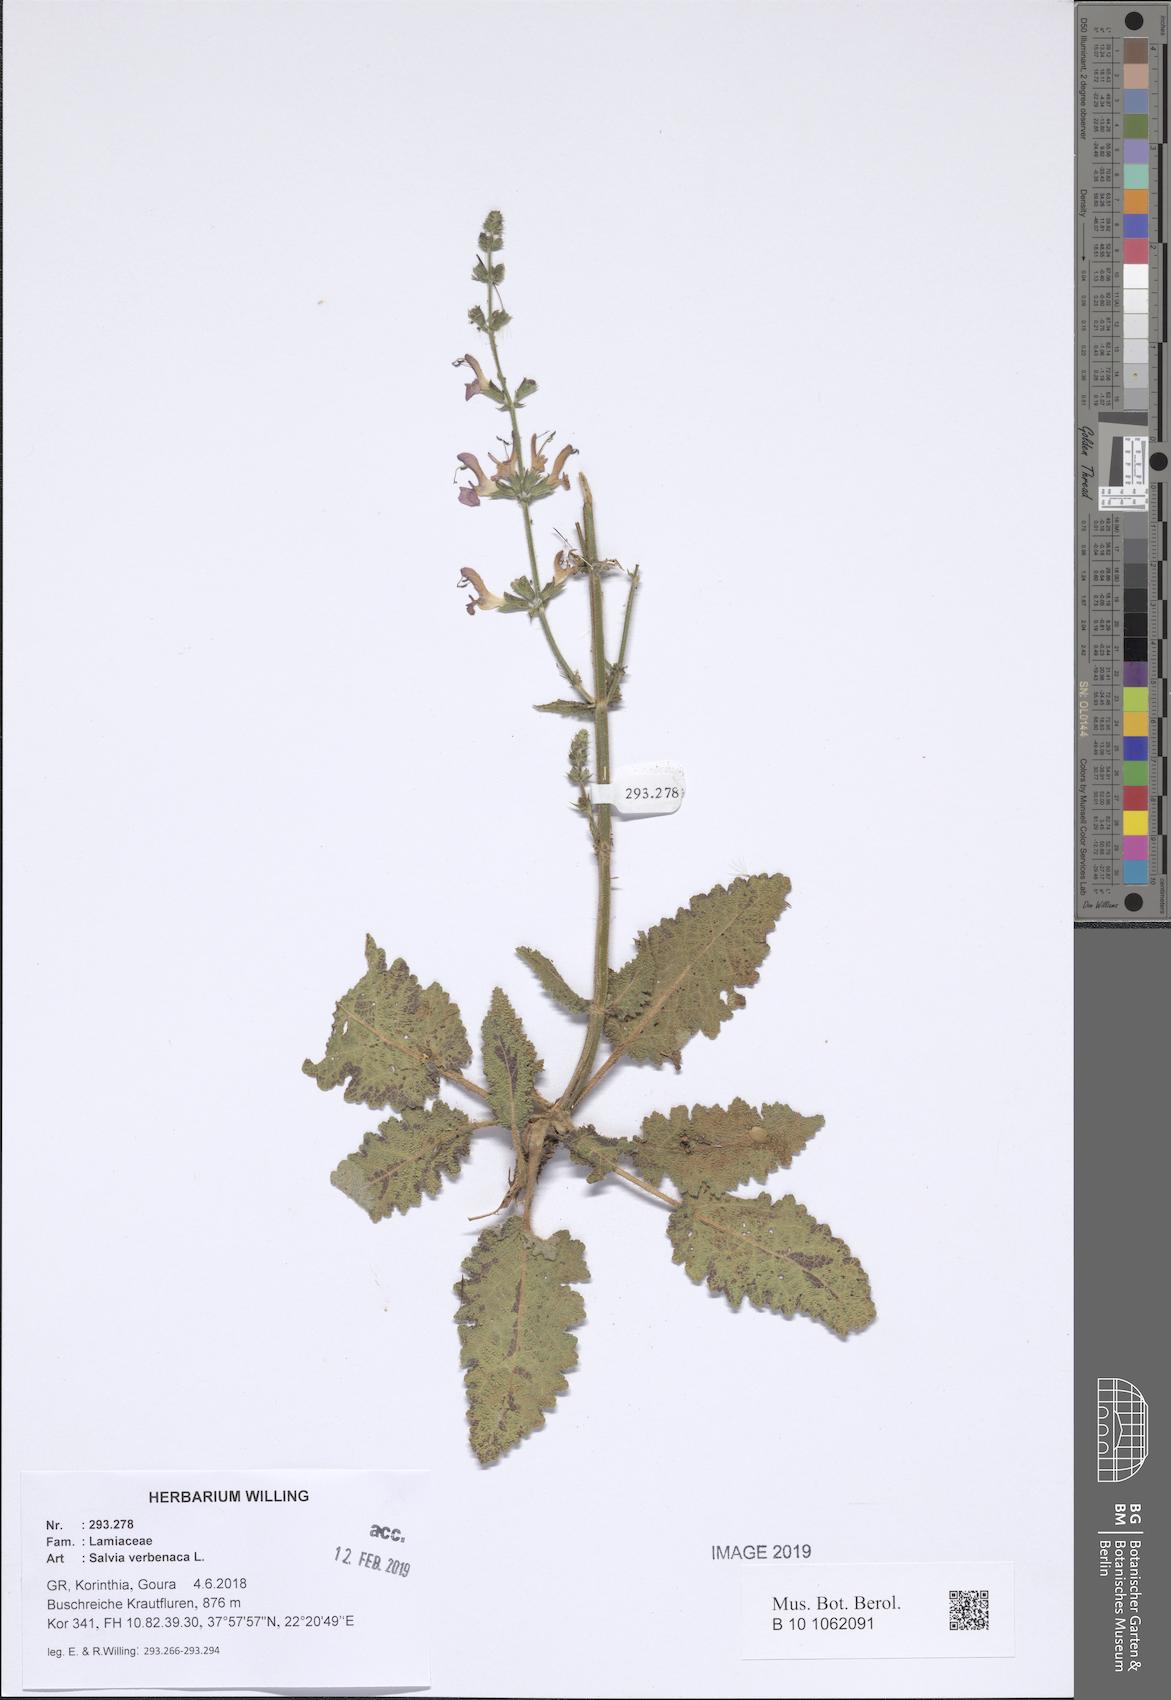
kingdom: Plantae
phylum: Tracheophyta
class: Magnoliopsida
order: Lamiales
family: Lamiaceae
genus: Salvia
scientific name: Salvia verbenaca
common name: Wild clary
